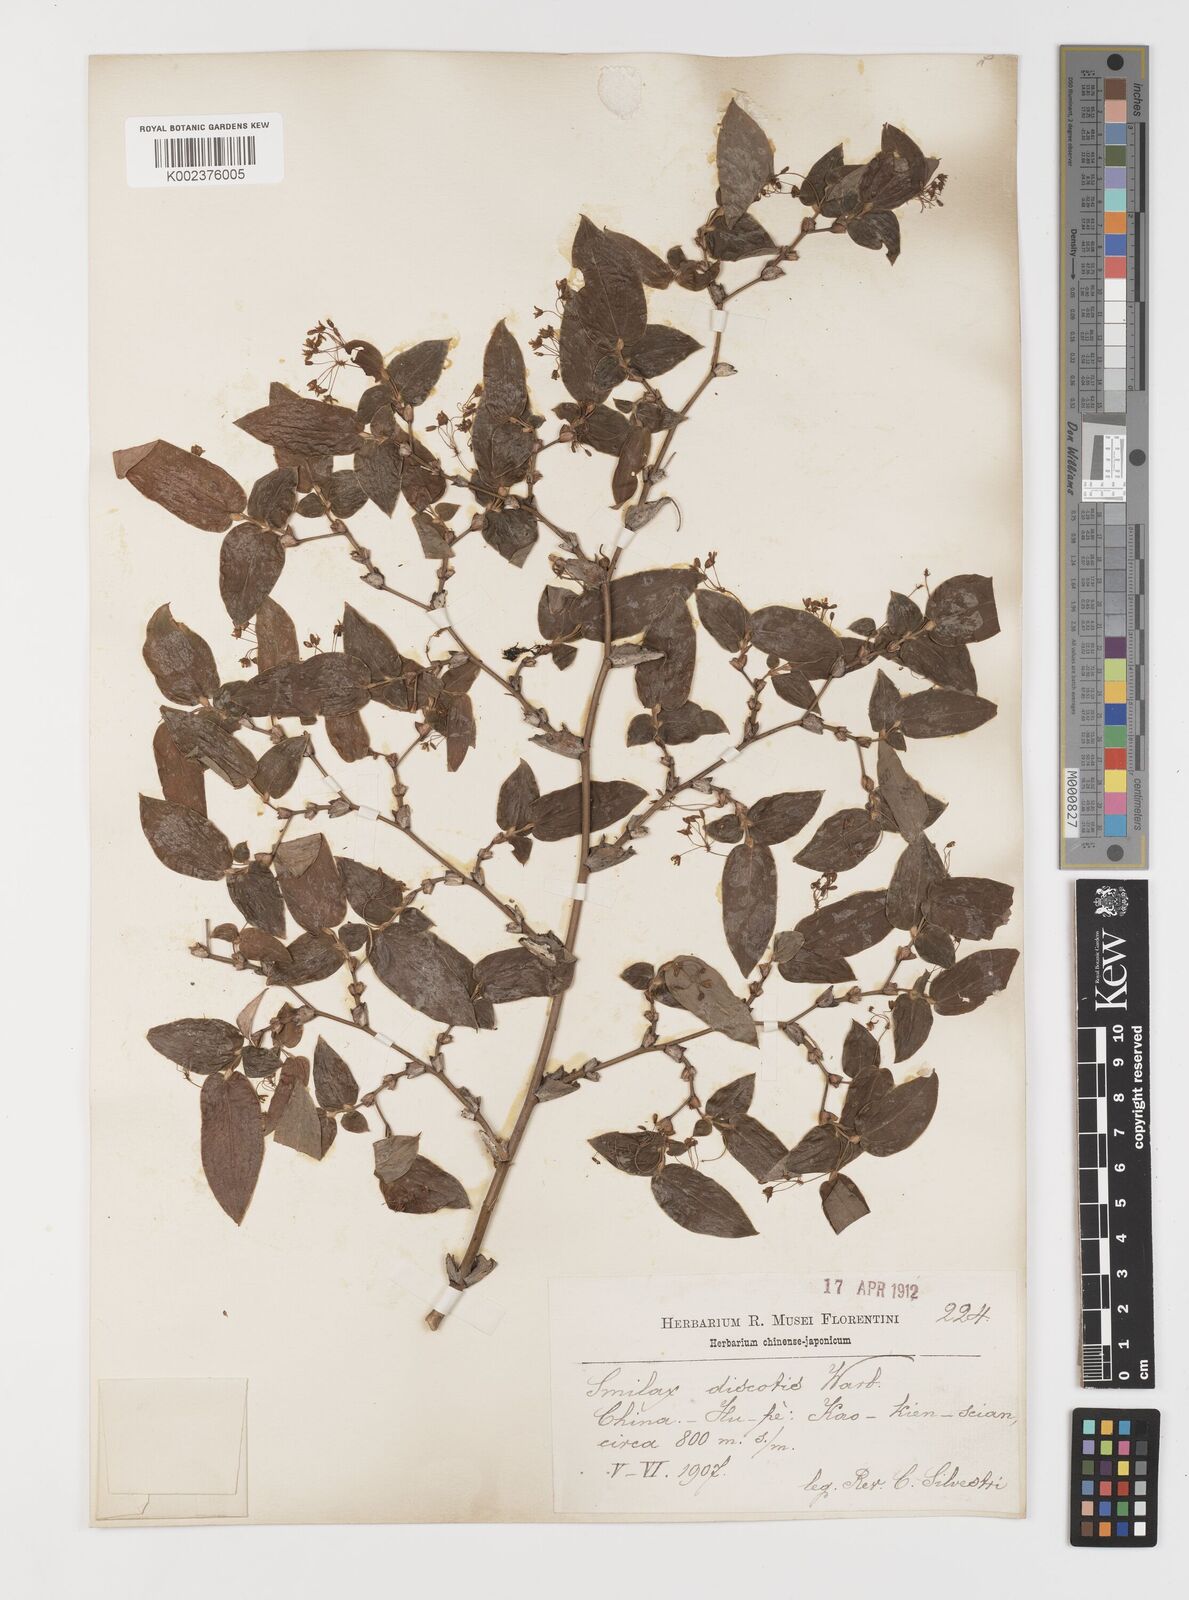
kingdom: Plantae
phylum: Tracheophyta
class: Liliopsida
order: Liliales
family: Smilacaceae
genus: Smilax
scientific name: Smilax discotis
